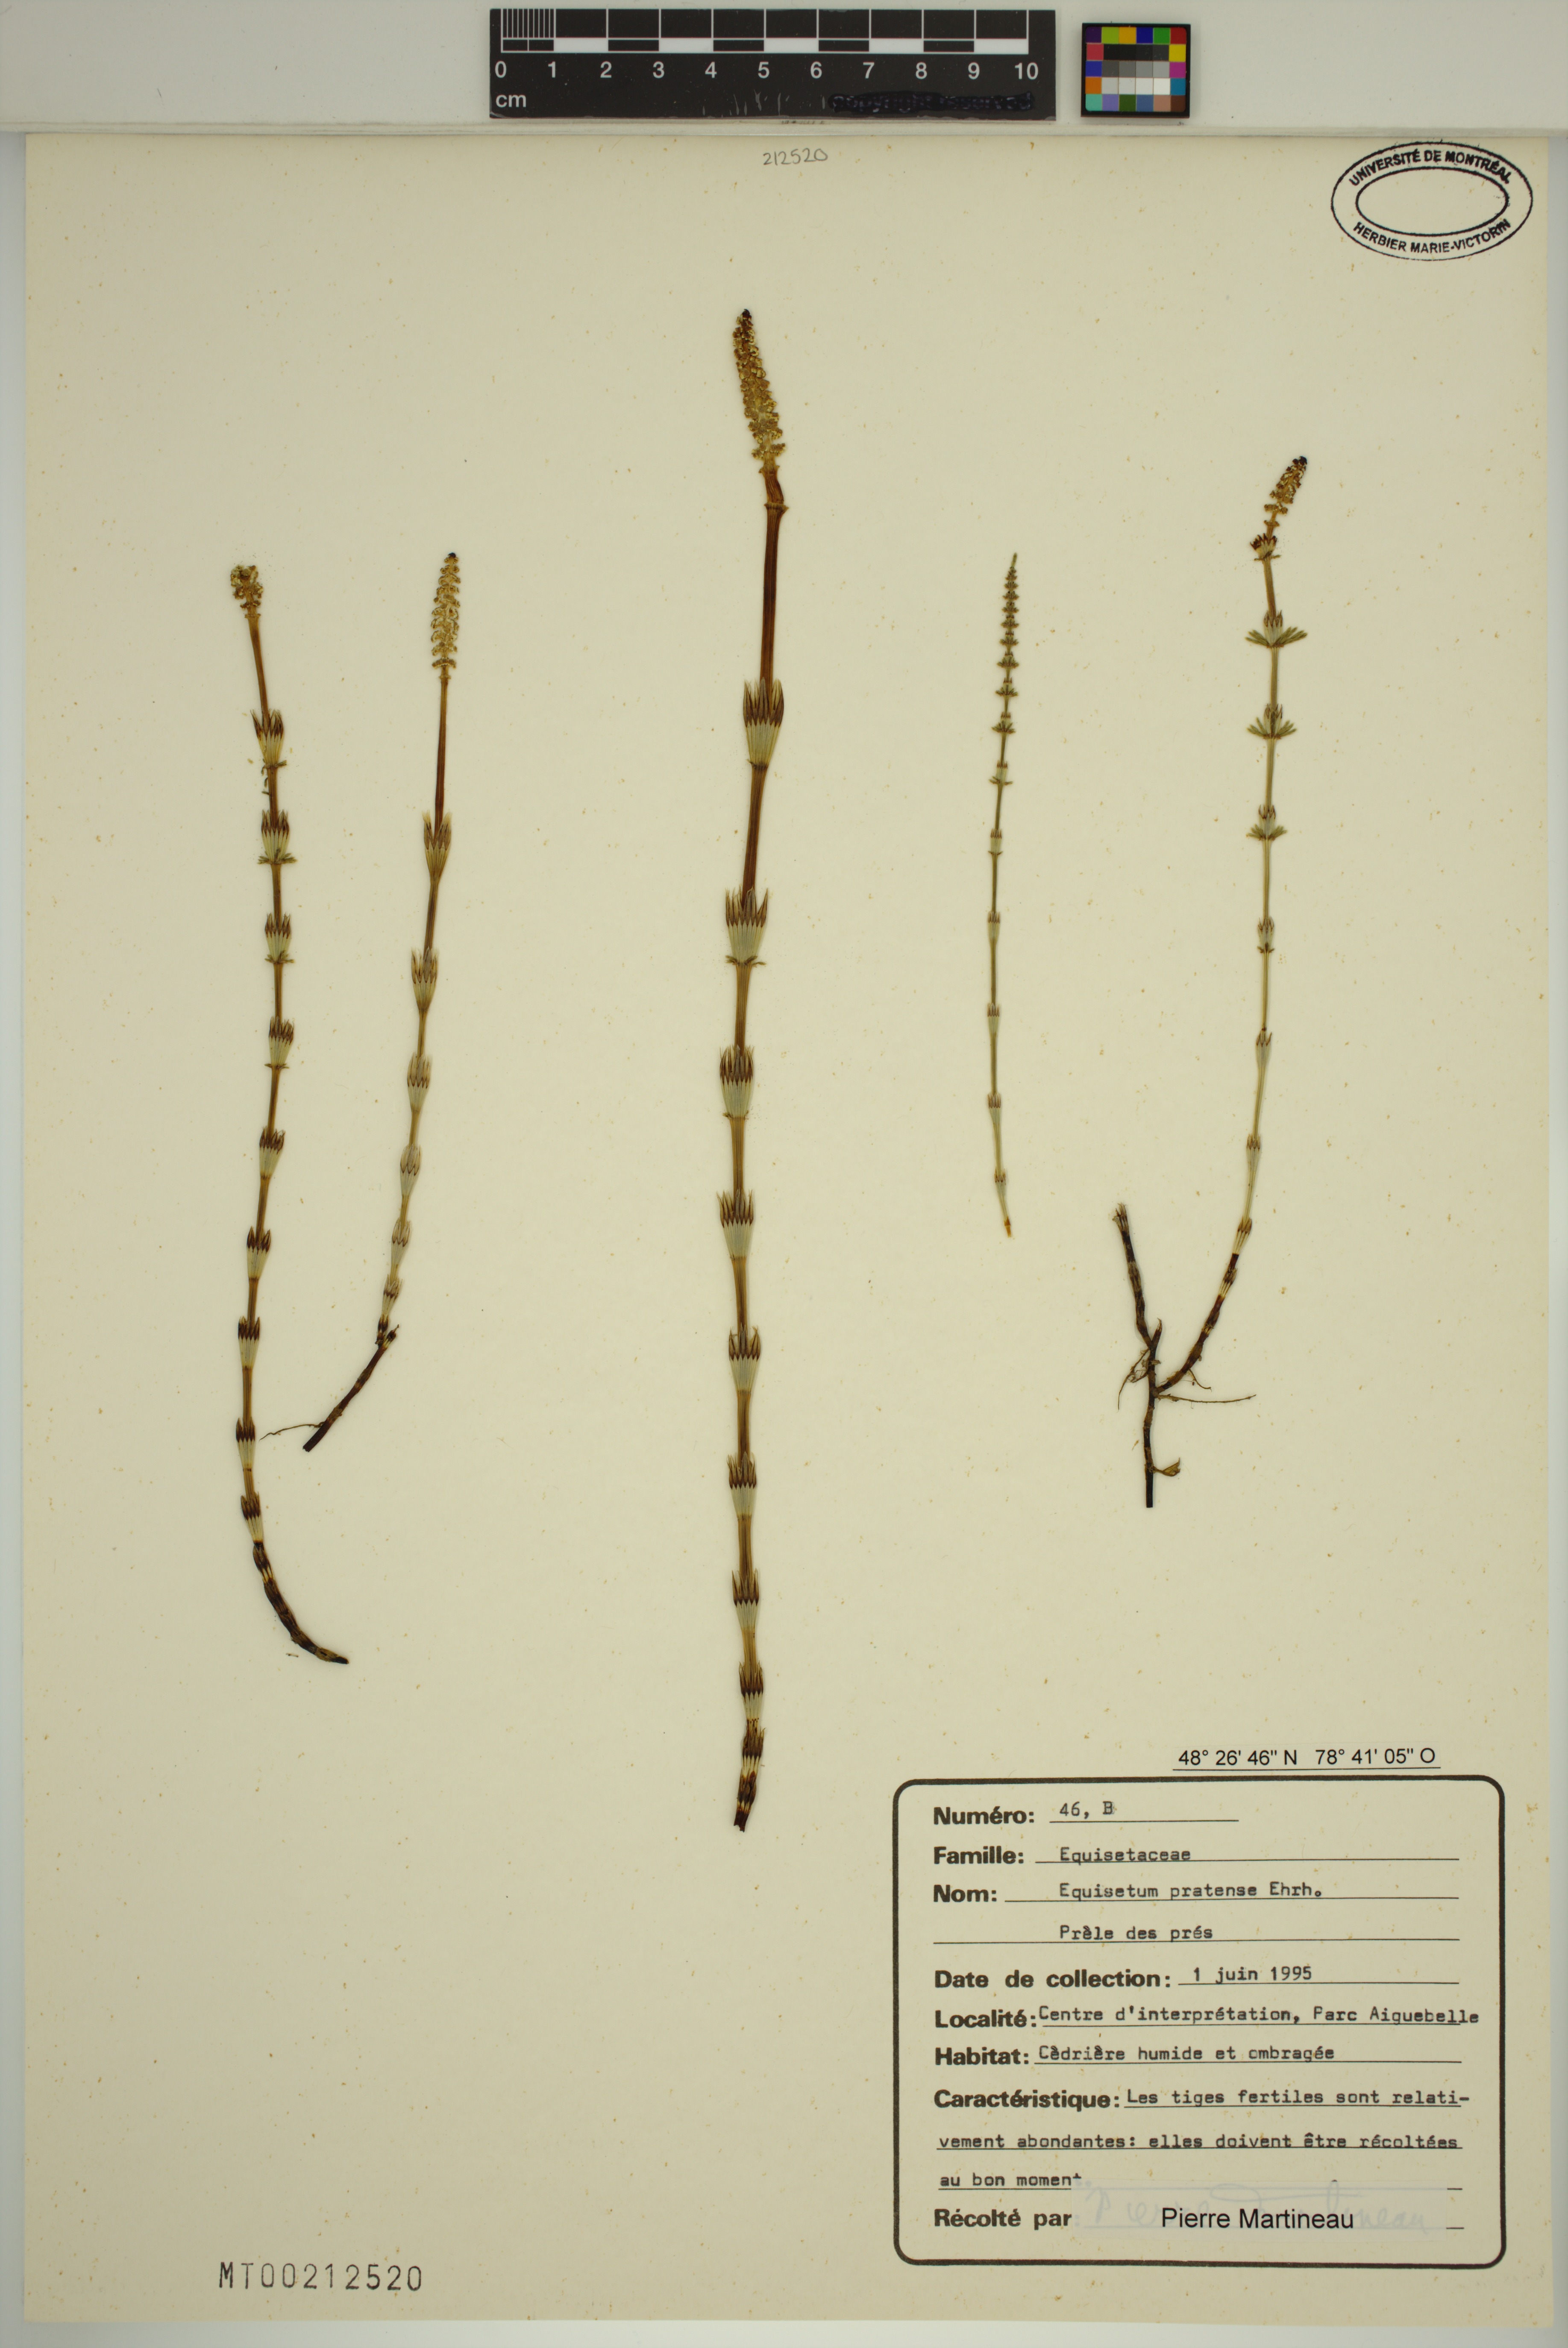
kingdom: Plantae
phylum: Tracheophyta
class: Polypodiopsida
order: Equisetales
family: Equisetaceae
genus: Equisetum
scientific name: Equisetum pratense
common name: Meadow horsetail
